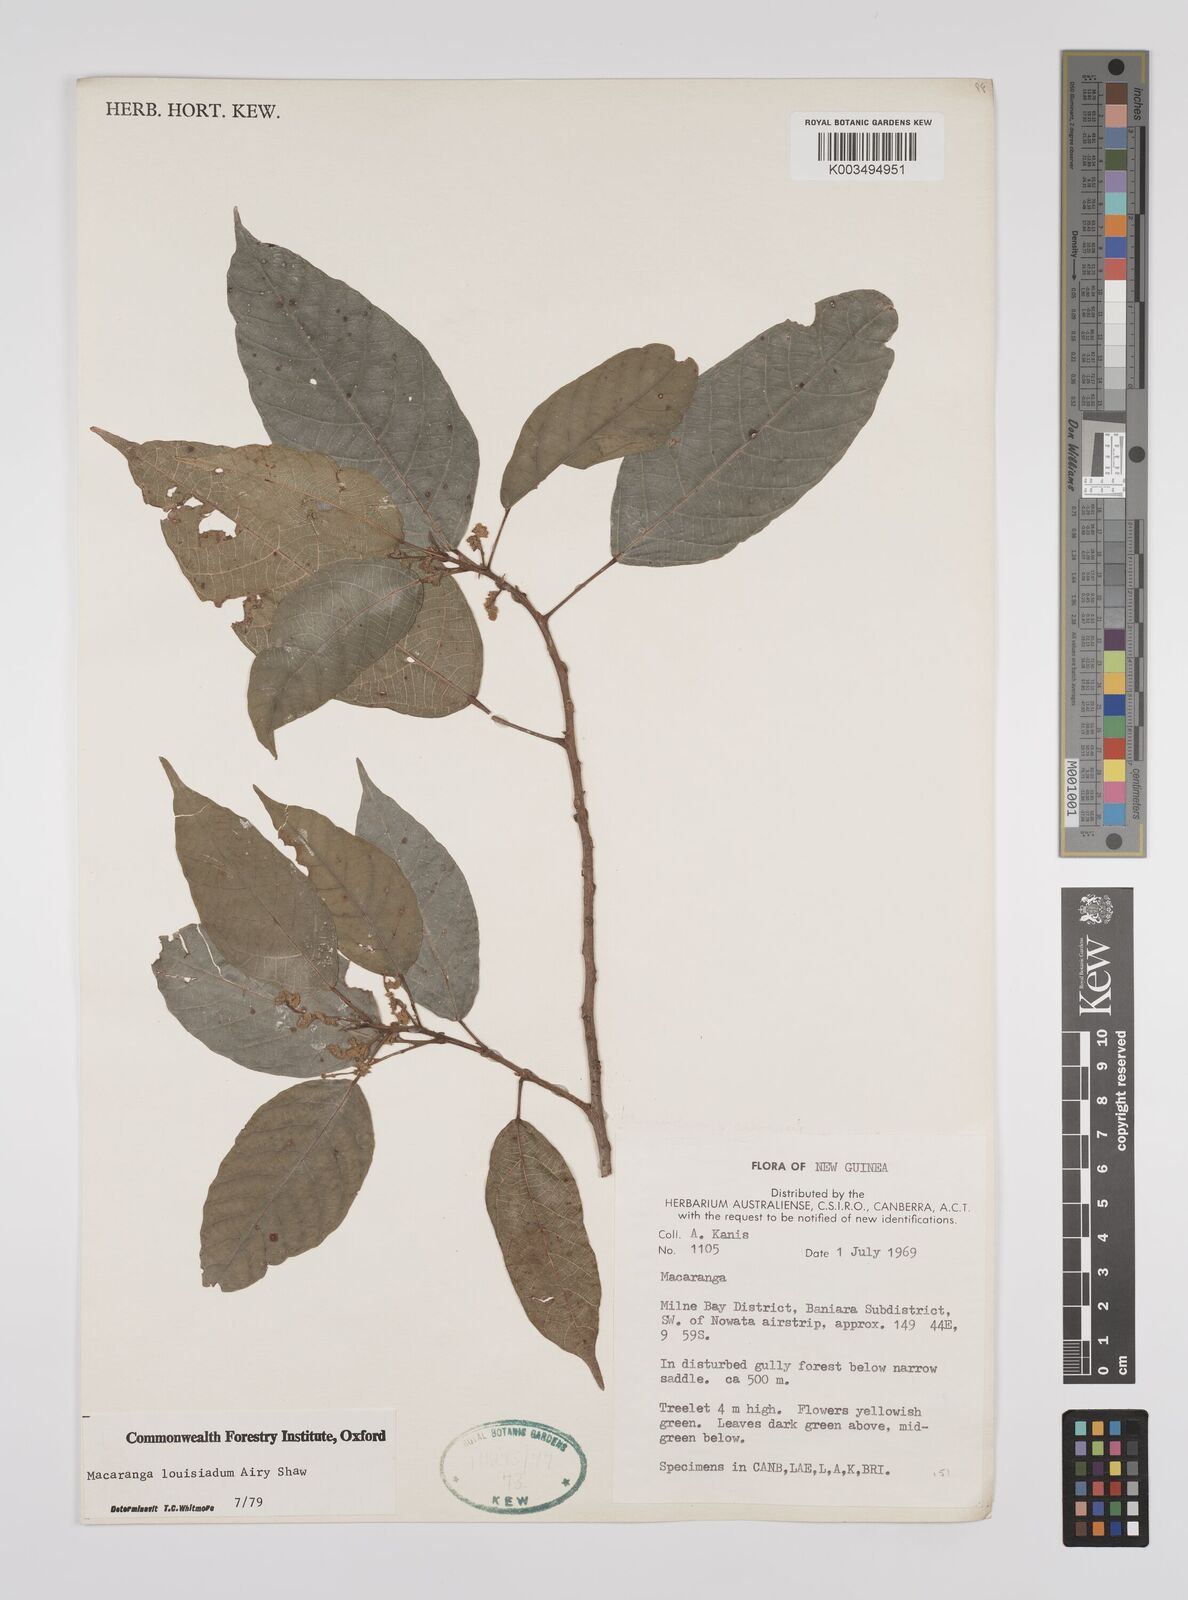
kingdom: Plantae
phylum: Tracheophyta
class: Magnoliopsida
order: Malpighiales
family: Euphorbiaceae
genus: Macaranga
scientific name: Macaranga louisiadum
